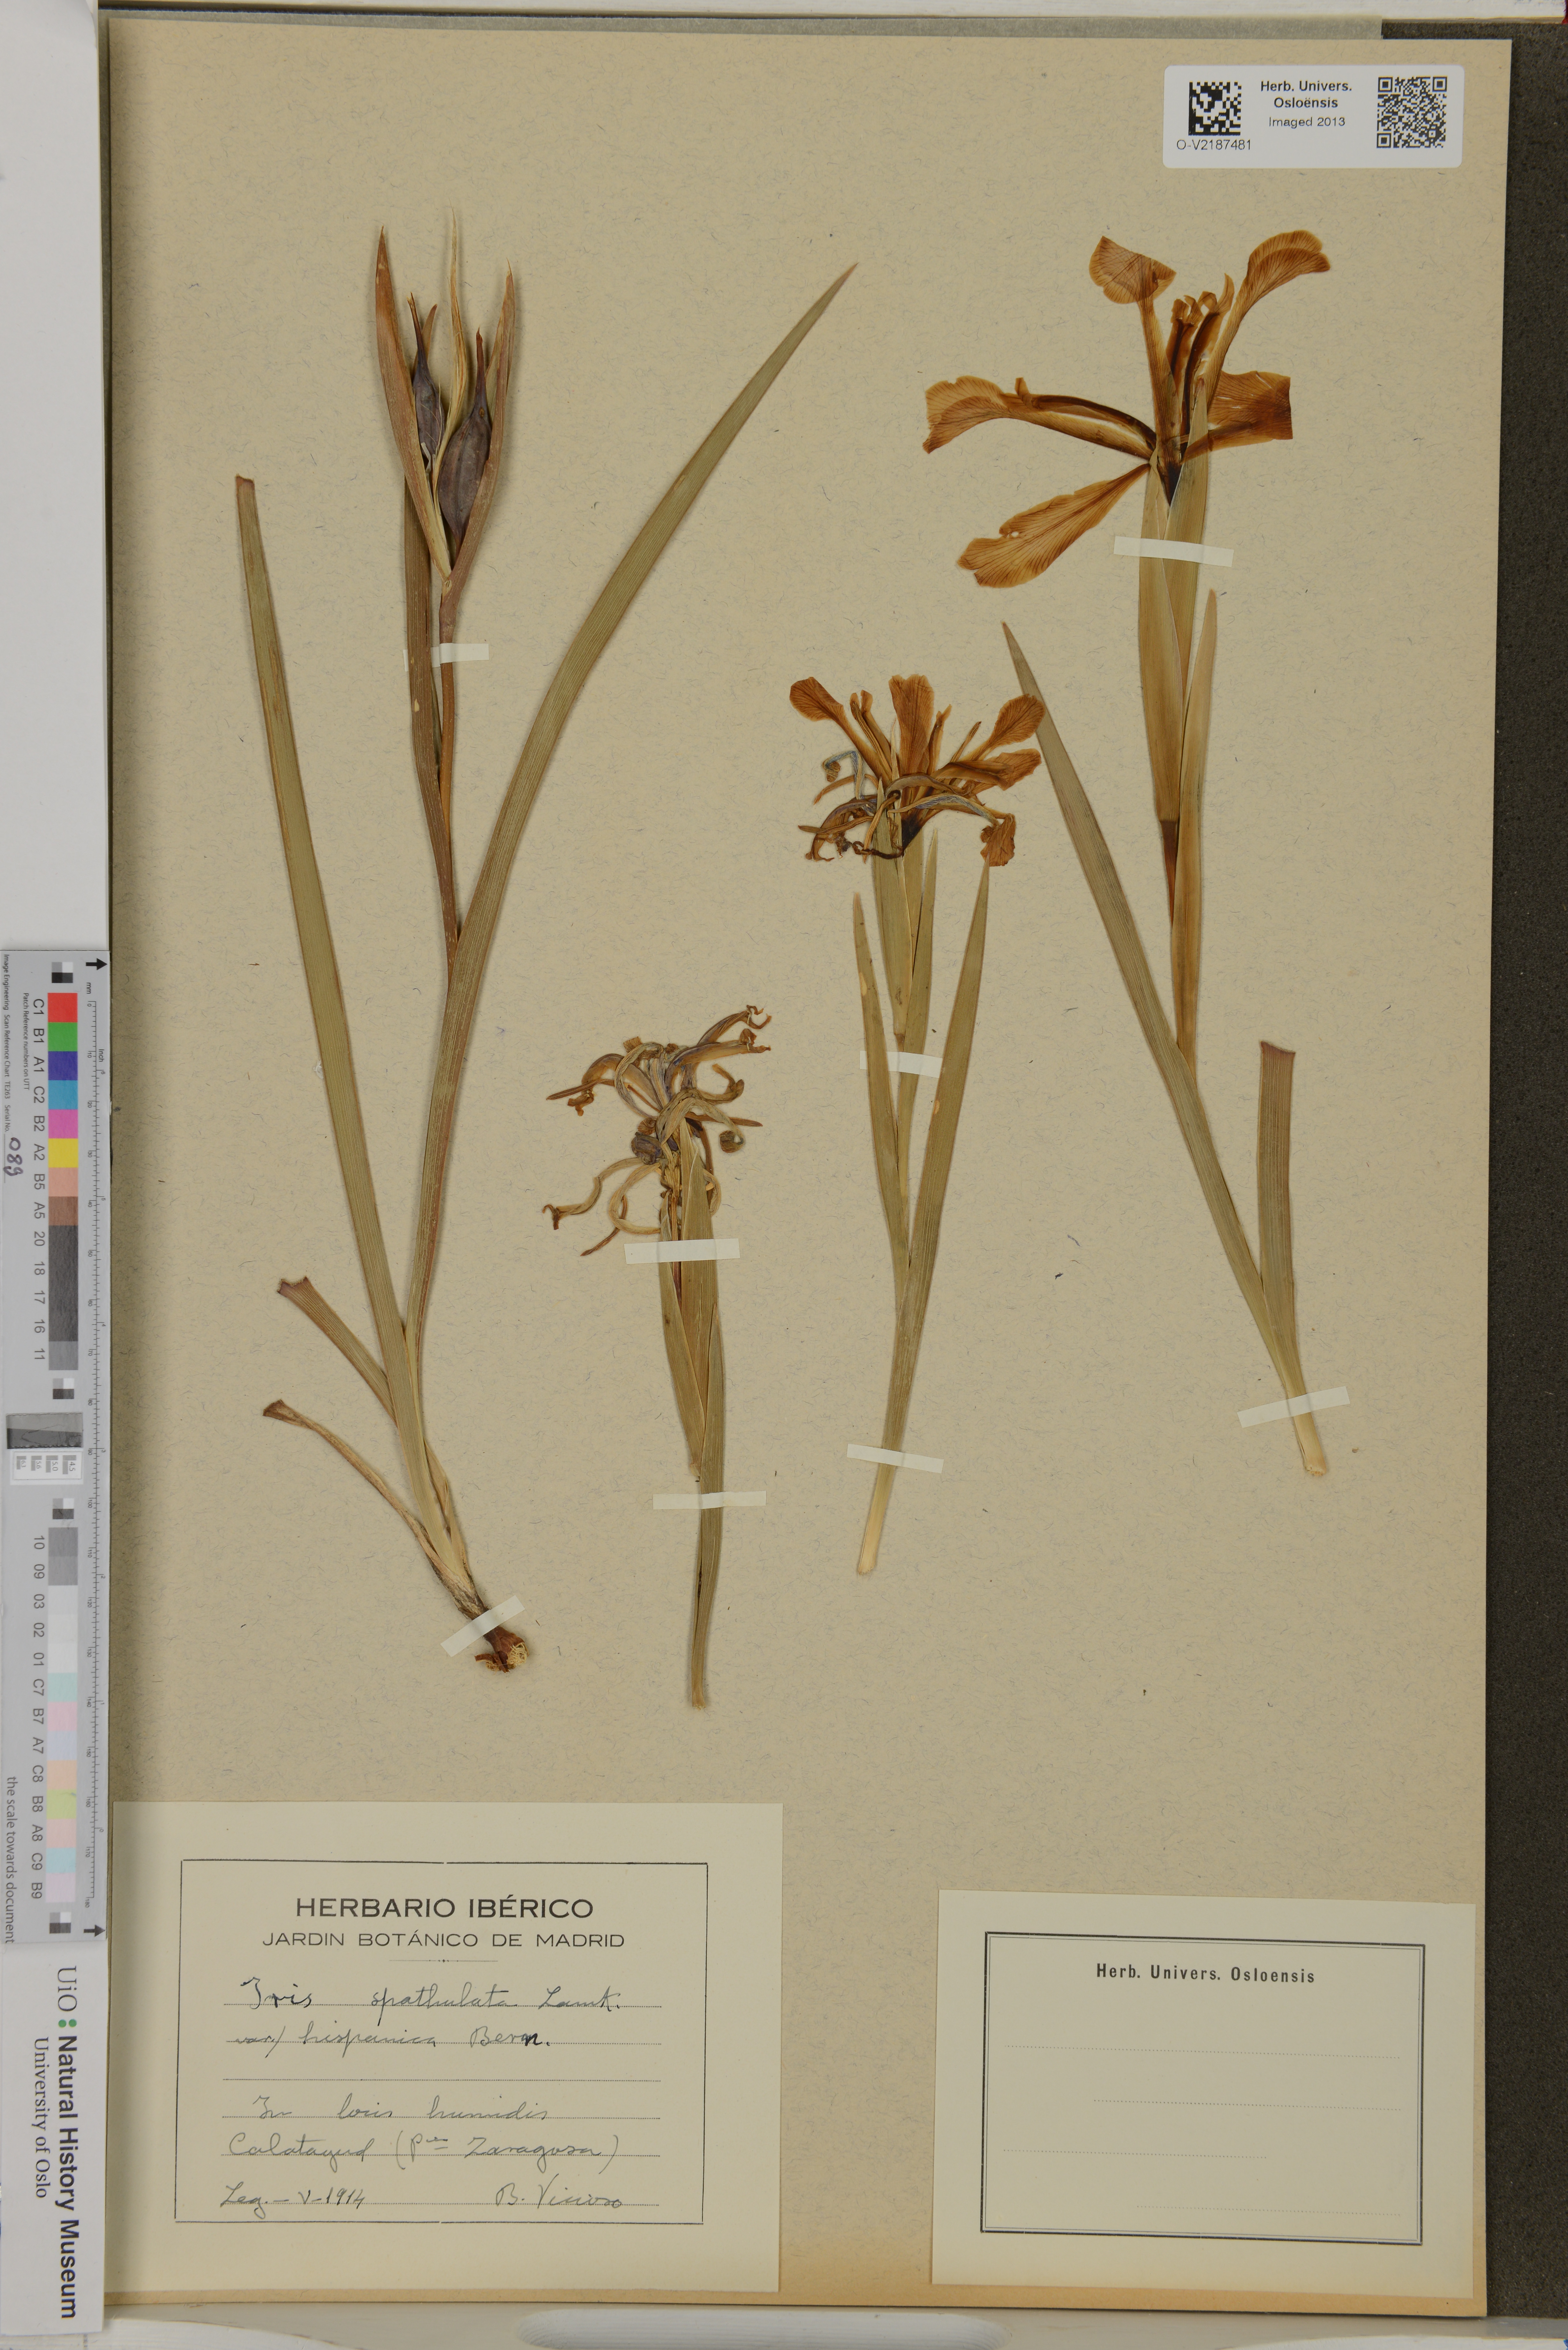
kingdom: Plantae
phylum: Tracheophyta
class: Liliopsida
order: Asparagales
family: Iridaceae
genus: Iris
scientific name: Iris
